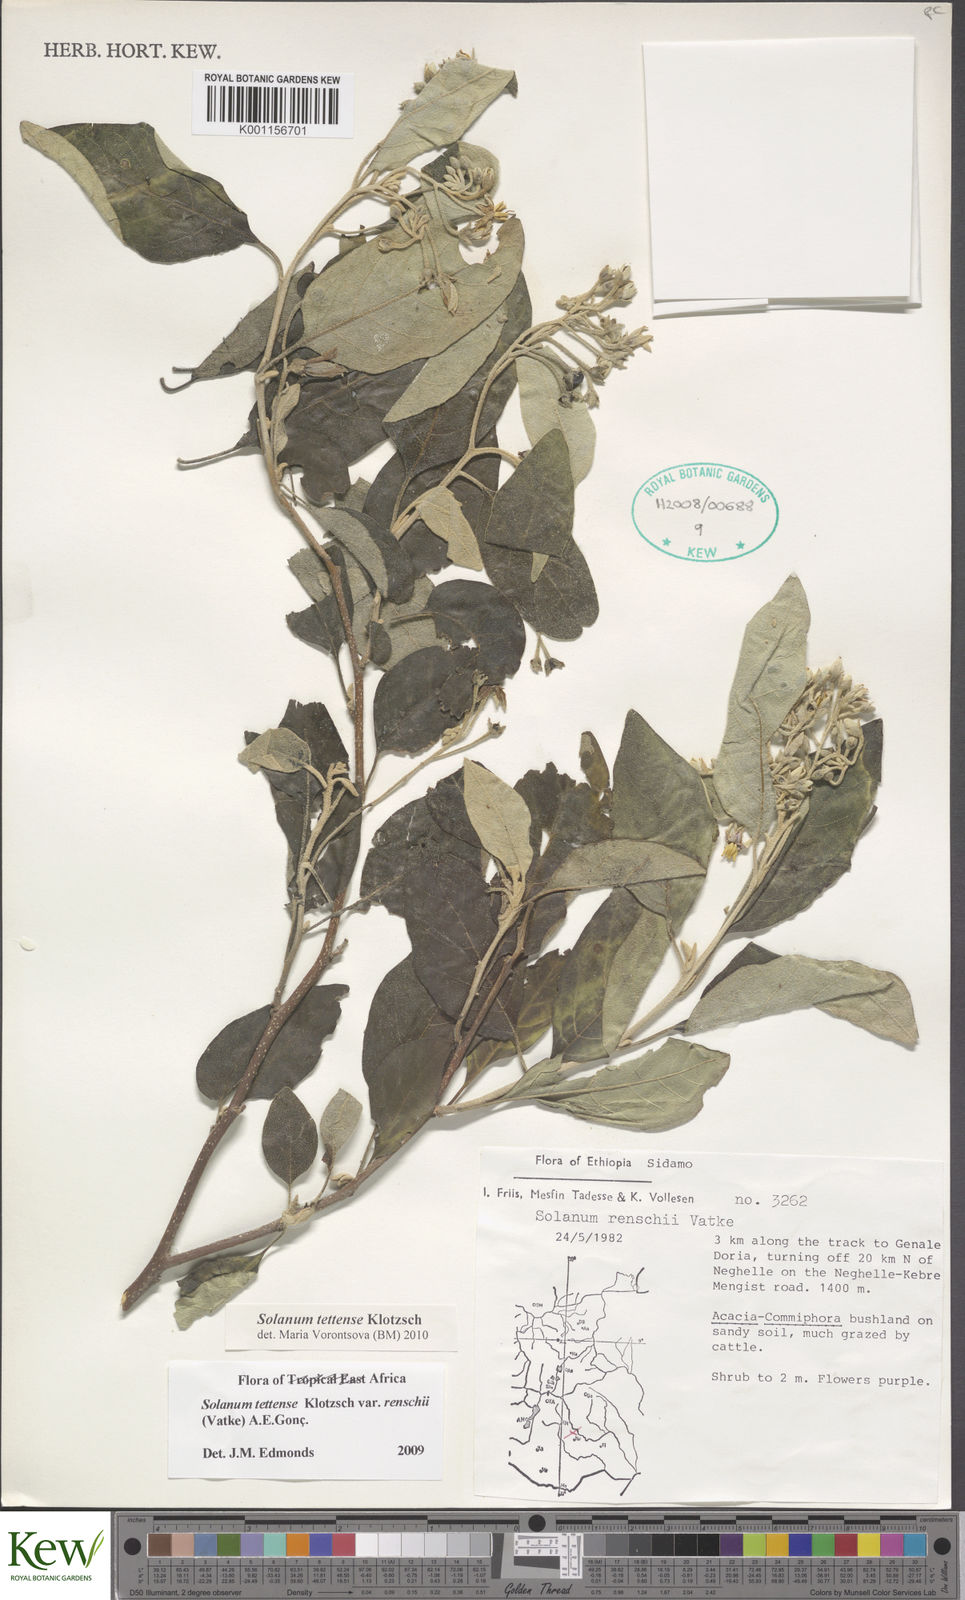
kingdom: Plantae
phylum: Tracheophyta
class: Magnoliopsida
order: Solanales
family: Solanaceae
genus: Solanum
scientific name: Solanum tettense
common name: Mozambique bitter apple
